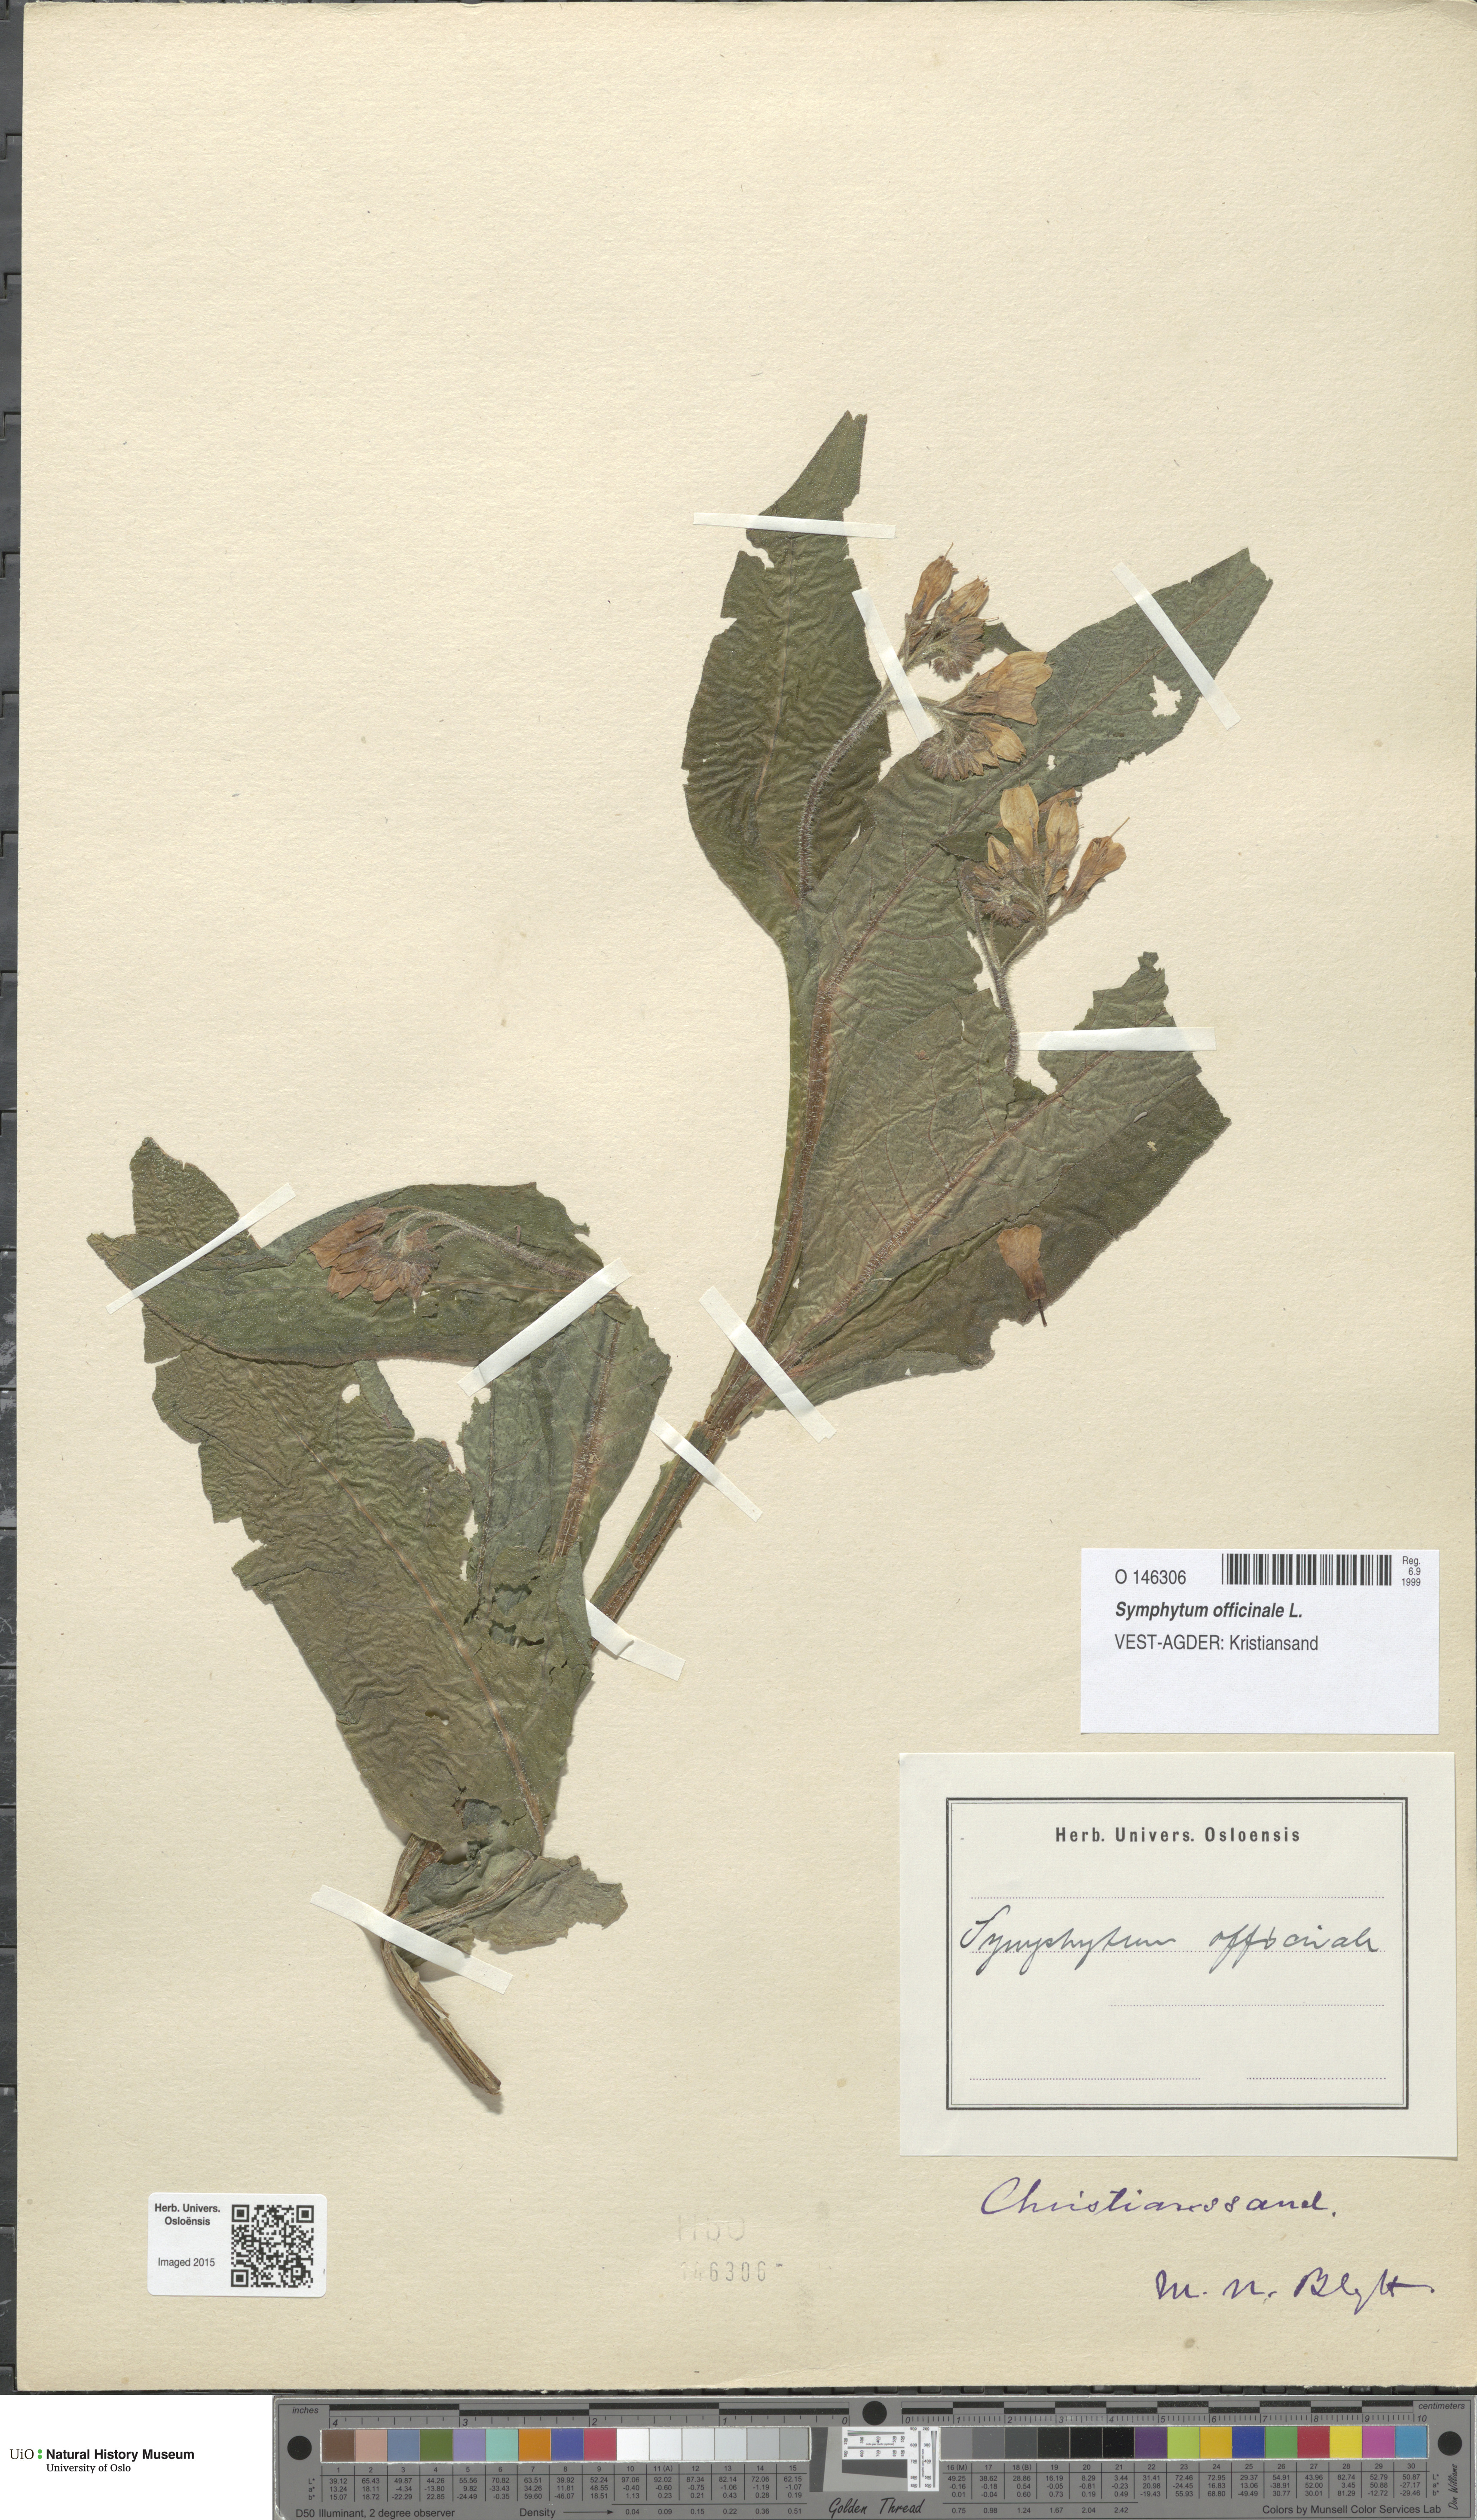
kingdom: Plantae
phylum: Tracheophyta
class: Magnoliopsida
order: Boraginales
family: Boraginaceae
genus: Symphytum
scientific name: Symphytum officinale
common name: Common comfrey
